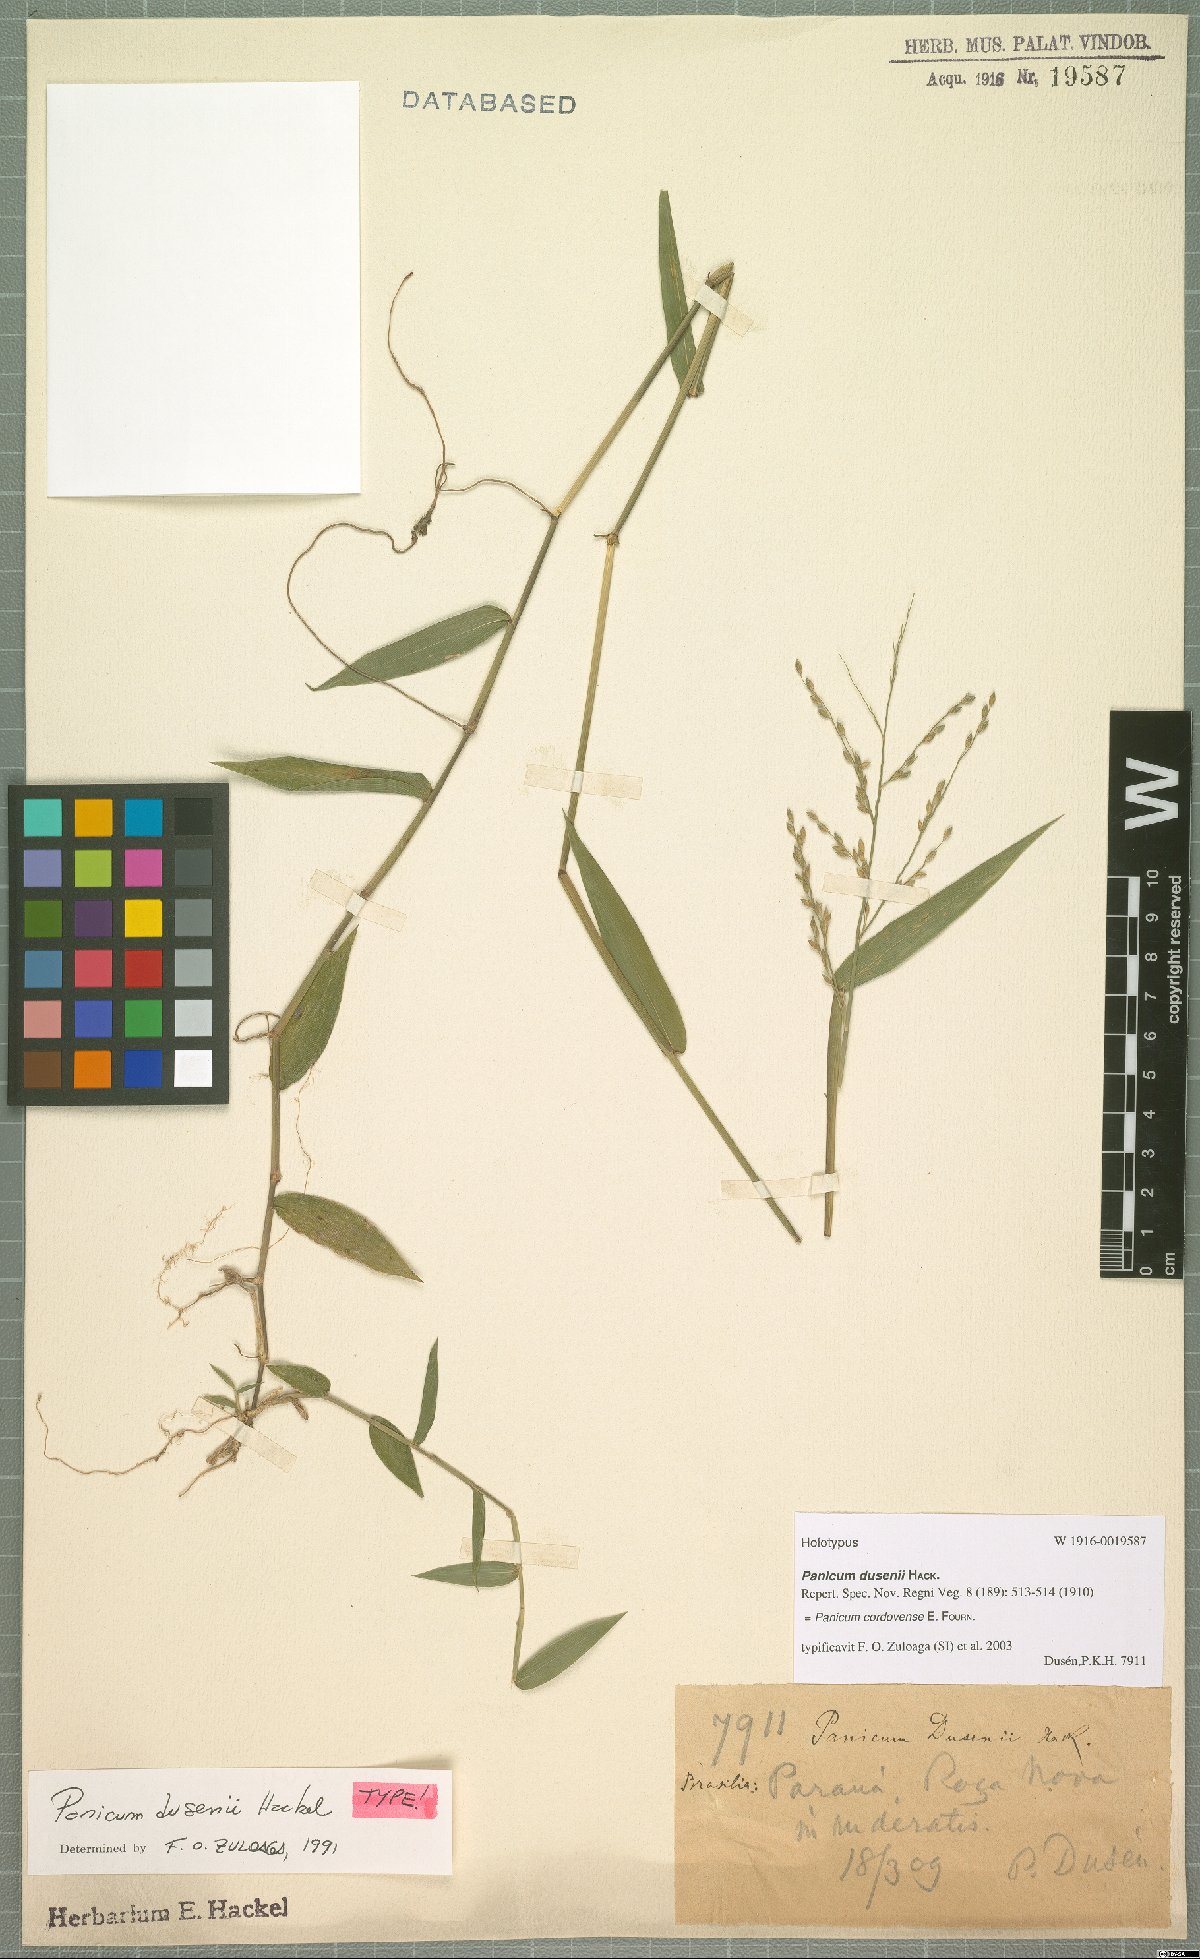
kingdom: Plantae
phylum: Tracheophyta
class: Liliopsida
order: Poales
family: Poaceae
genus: Parodiophyllochloa
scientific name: Parodiophyllochloa cordovensis
